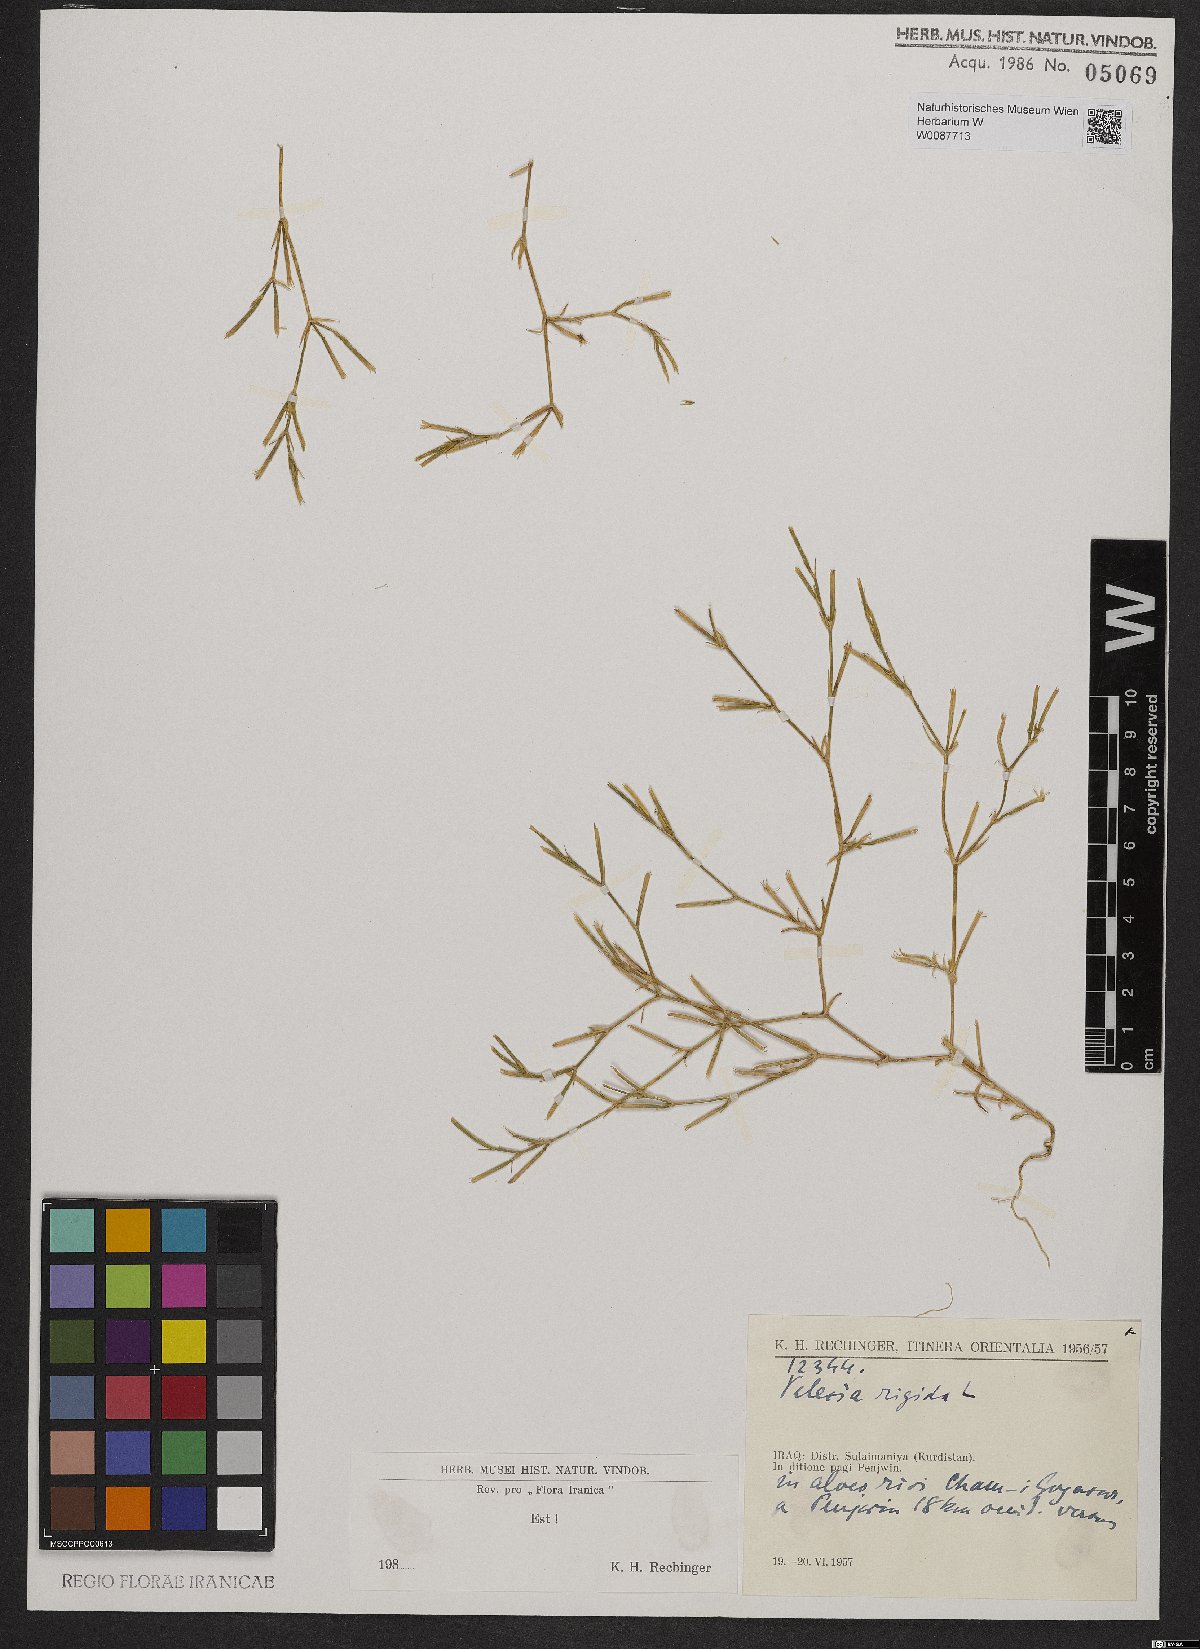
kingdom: Plantae
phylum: Tracheophyta
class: Magnoliopsida
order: Caryophyllales
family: Caryophyllaceae
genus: Dianthus
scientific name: Dianthus nudiflorus
